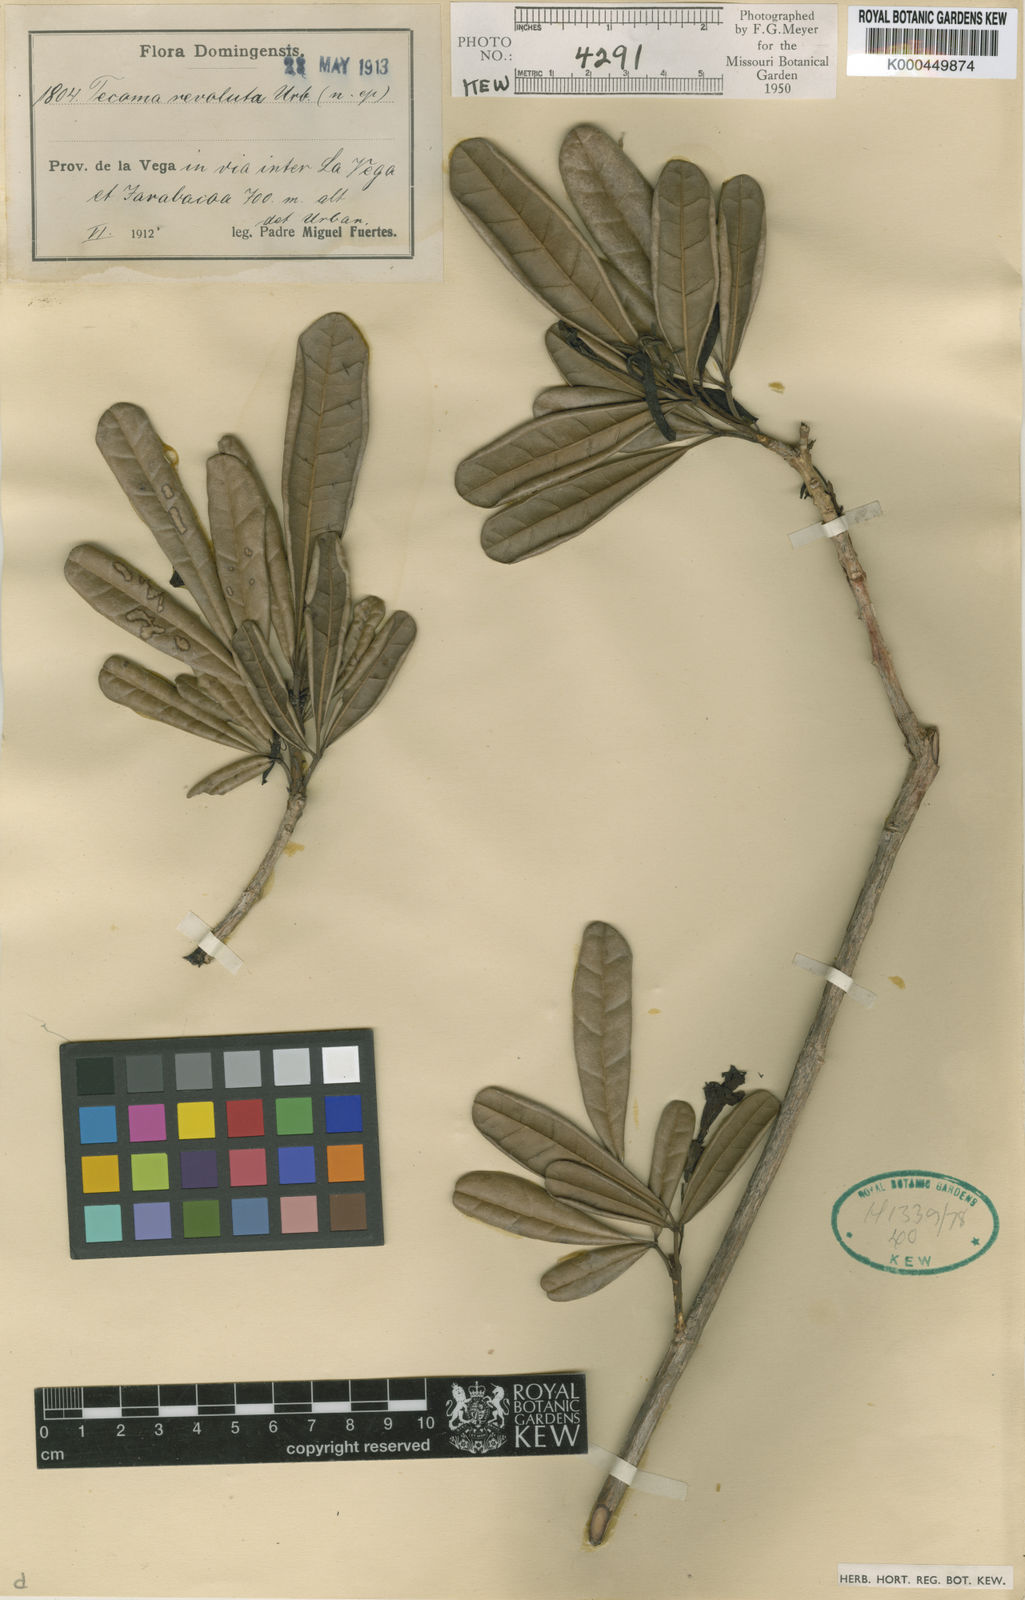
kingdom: Plantae
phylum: Tracheophyta
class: Magnoliopsida
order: Lamiales
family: Bignoniaceae
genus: Tabebuia
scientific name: Tabebuia revoluta
